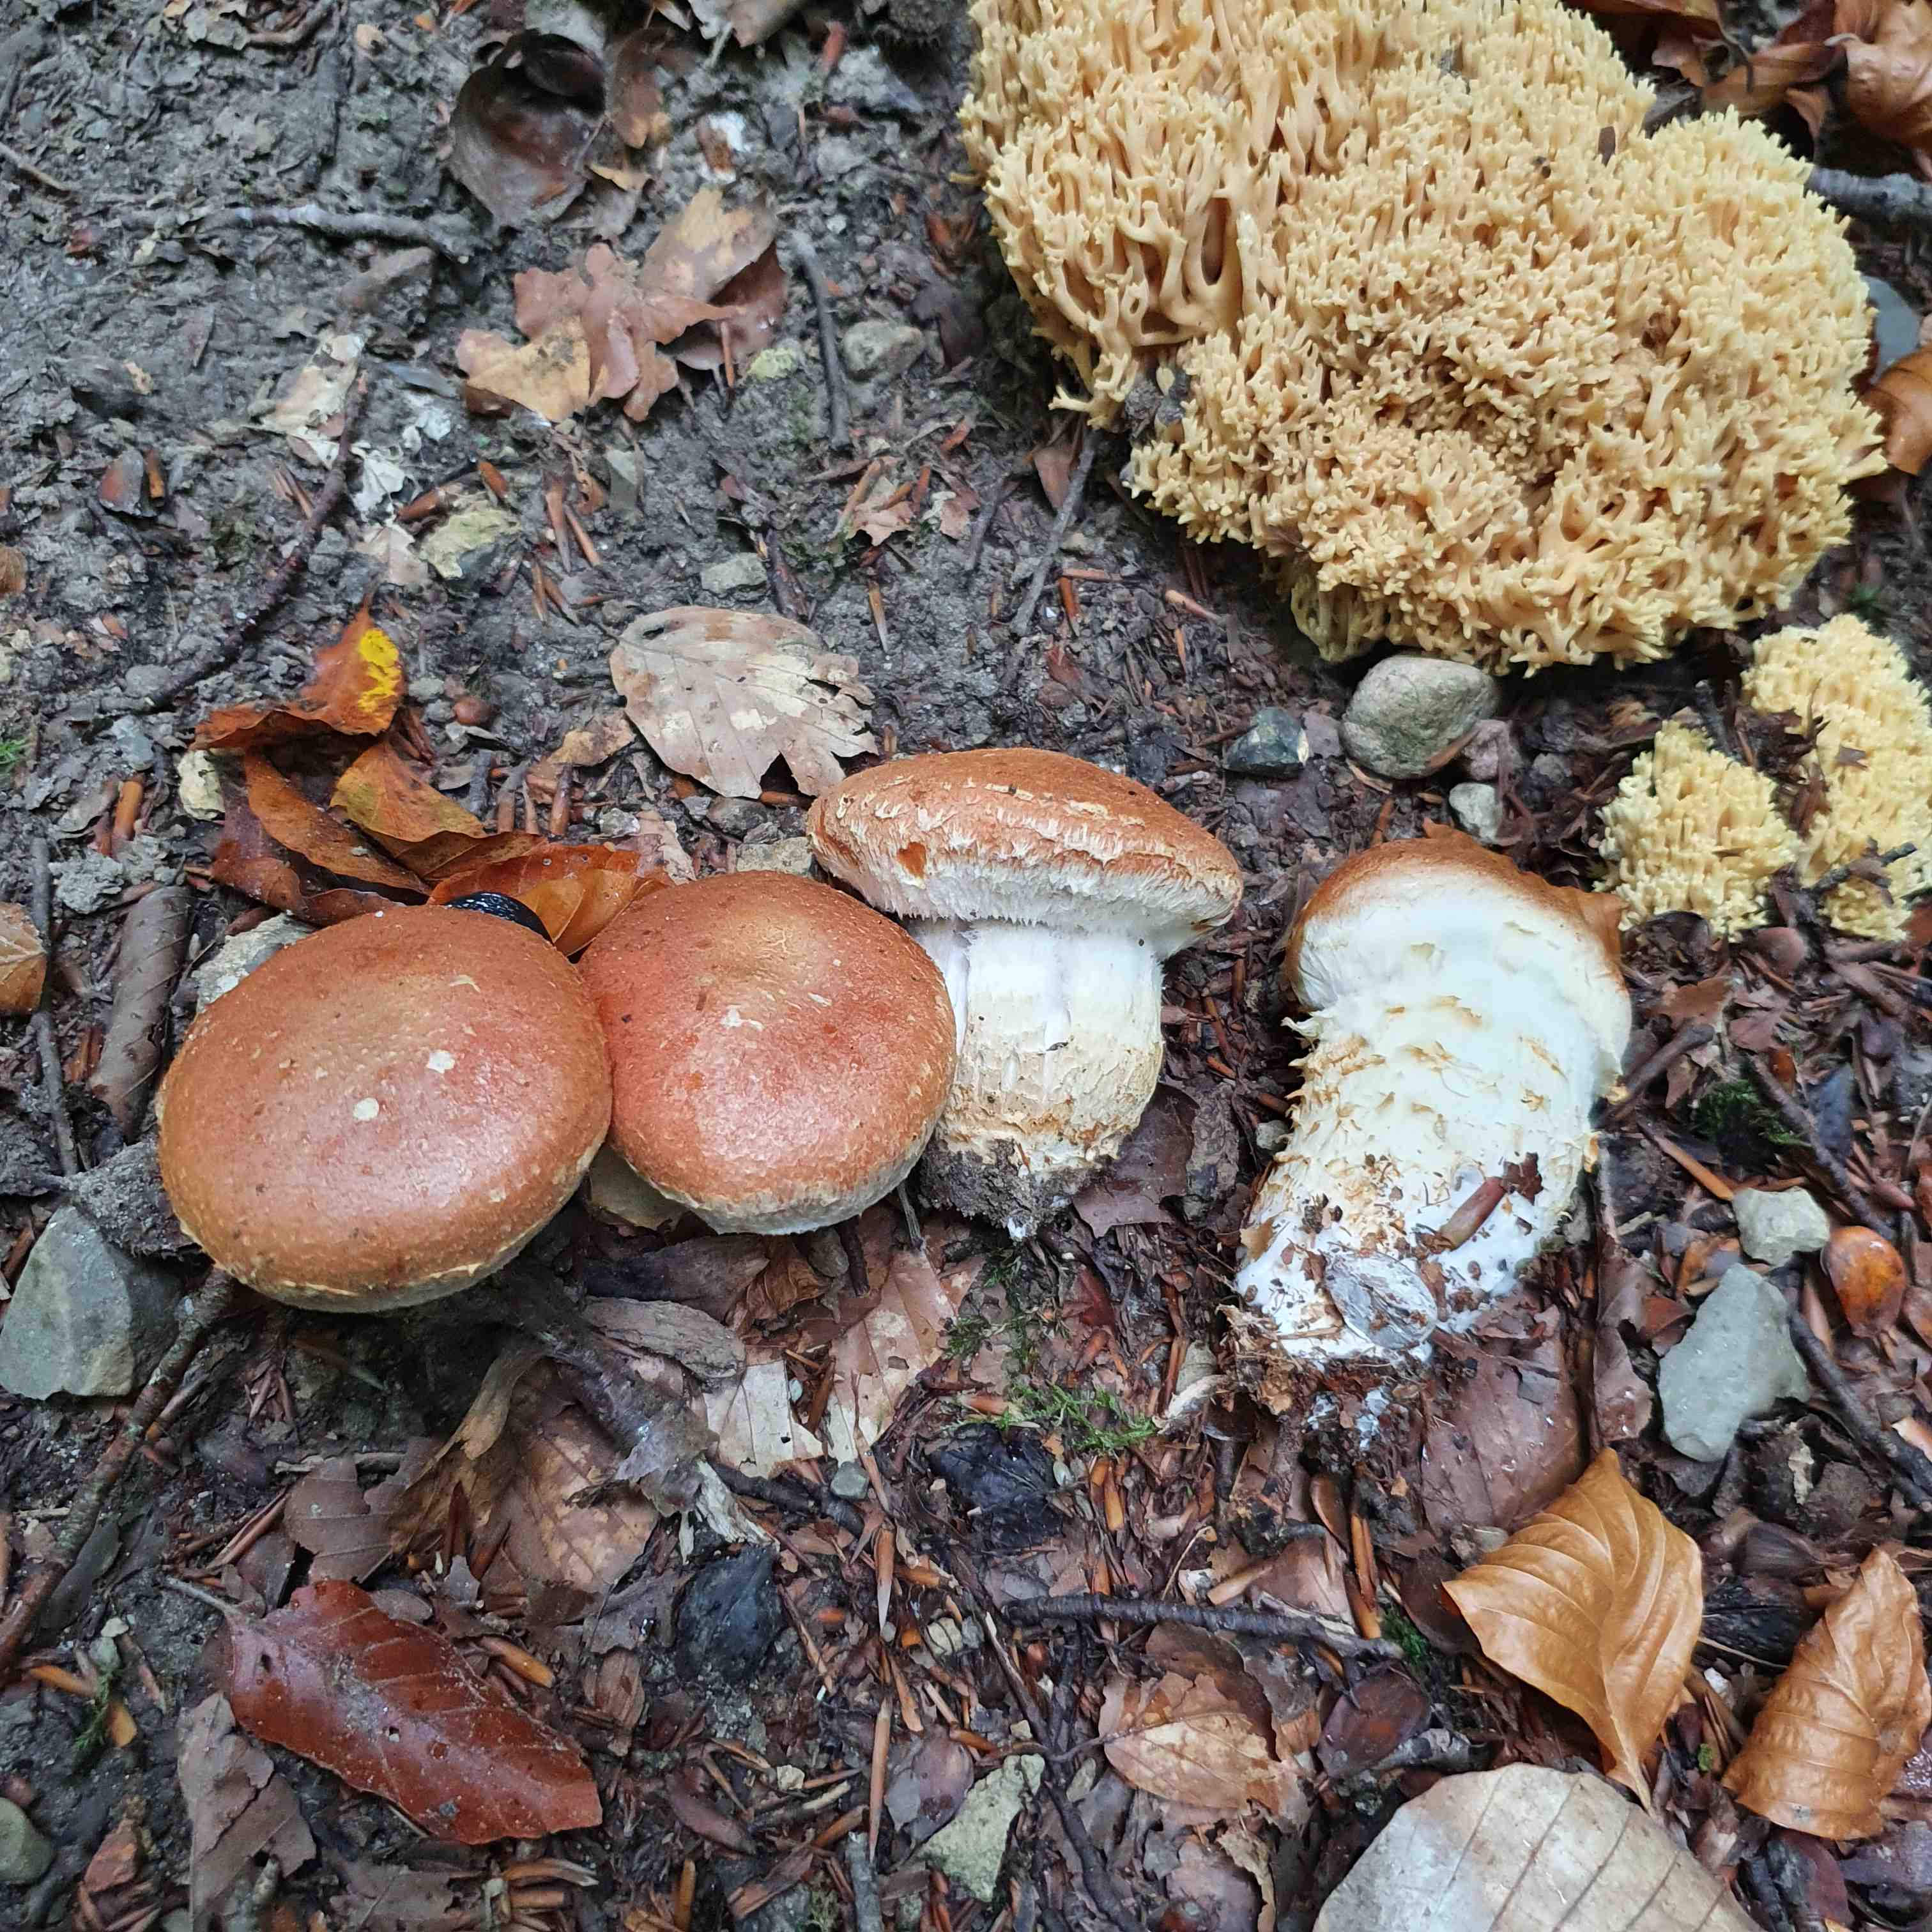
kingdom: Fungi
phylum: Basidiomycota
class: Agaricomycetes
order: Agaricales
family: Cortinariaceae
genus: Phlegmacium
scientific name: Phlegmacium vulpinum
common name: ringbæltet slørhat
